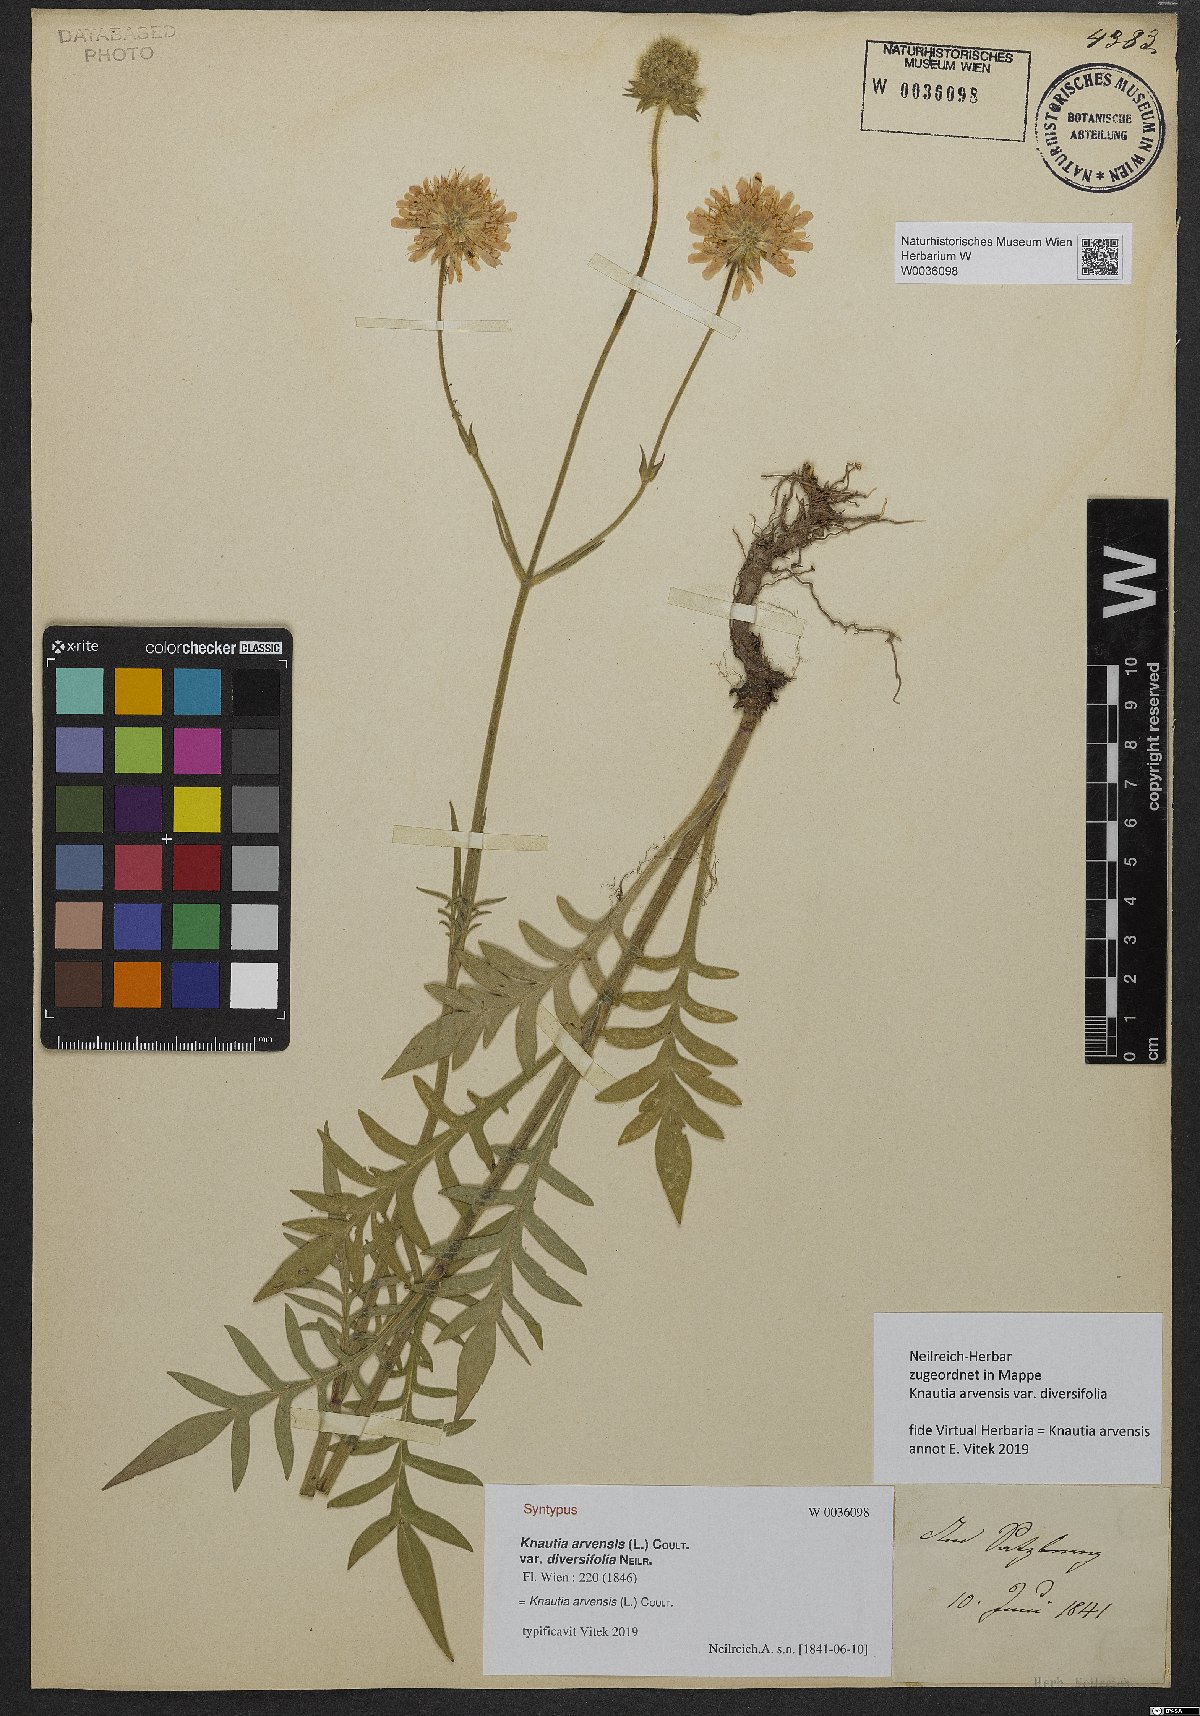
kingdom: Plantae
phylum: Tracheophyta
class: Magnoliopsida
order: Dipsacales
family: Caprifoliaceae
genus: Knautia
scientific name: Knautia arvensis
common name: Field scabiosa
